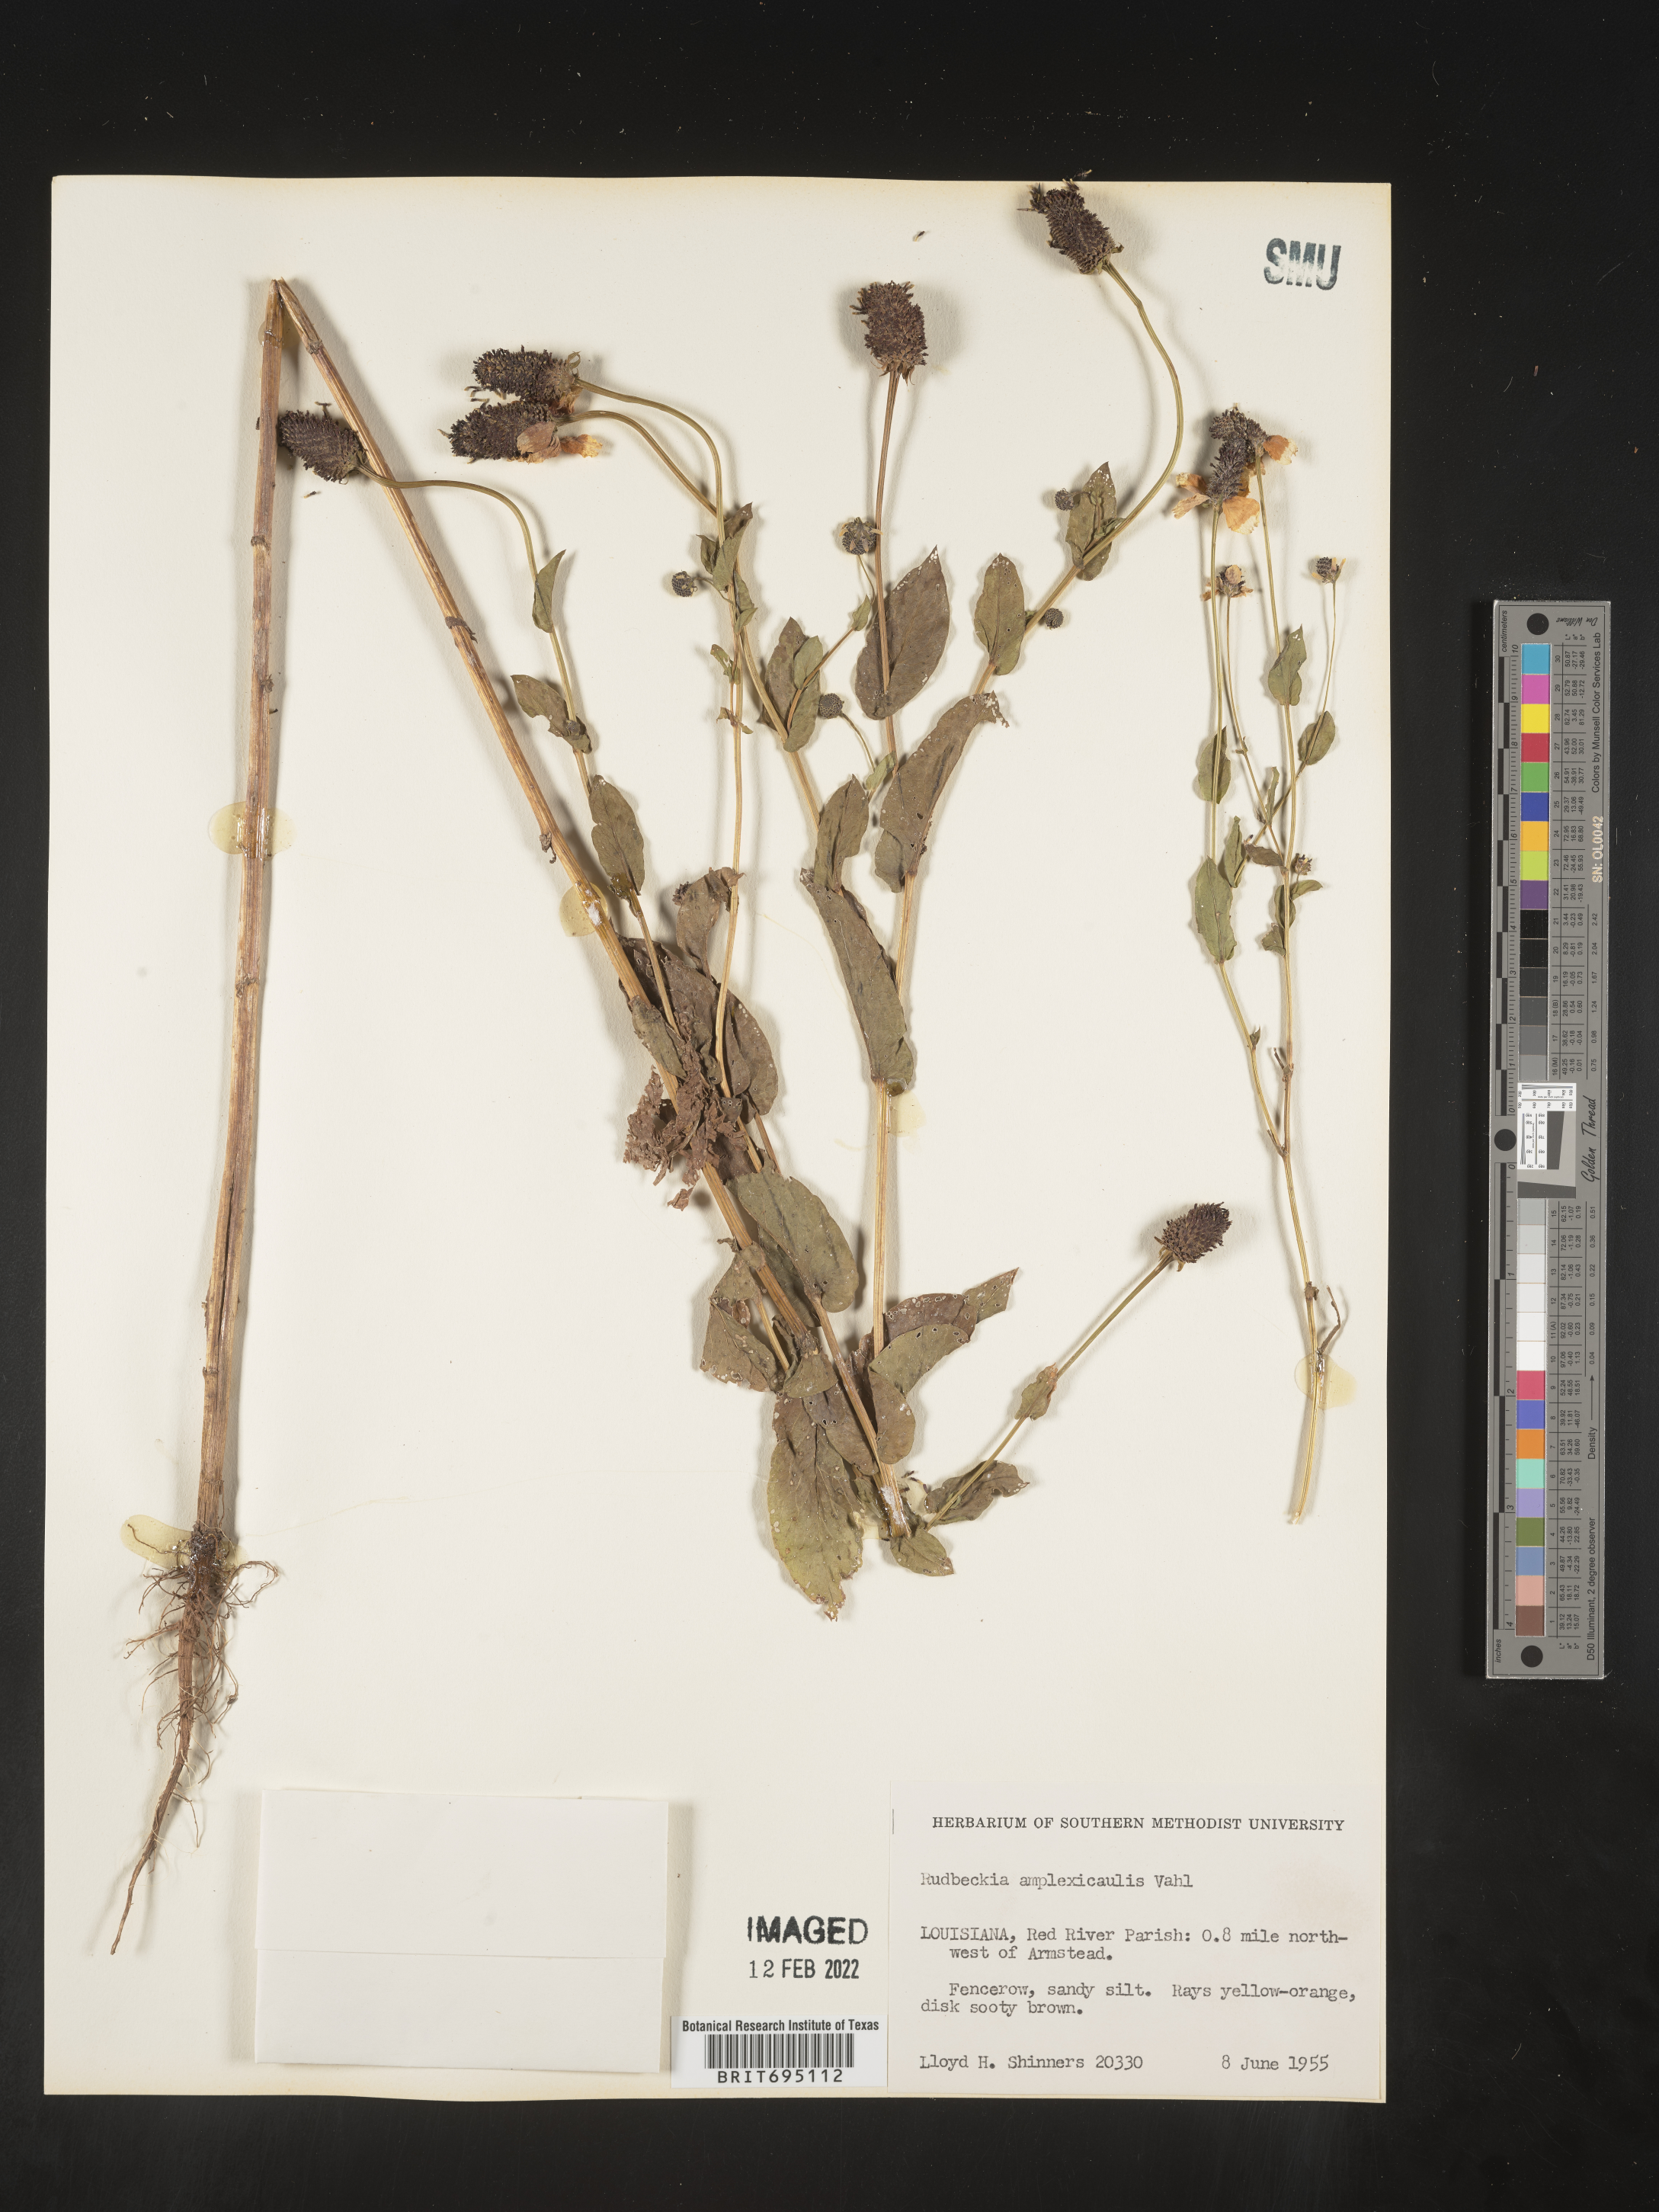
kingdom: Plantae
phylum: Tracheophyta
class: Magnoliopsida
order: Asterales
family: Asteraceae
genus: Rudbeckia
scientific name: Rudbeckia amplexicaulis
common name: Clasping-leaf coneflower
